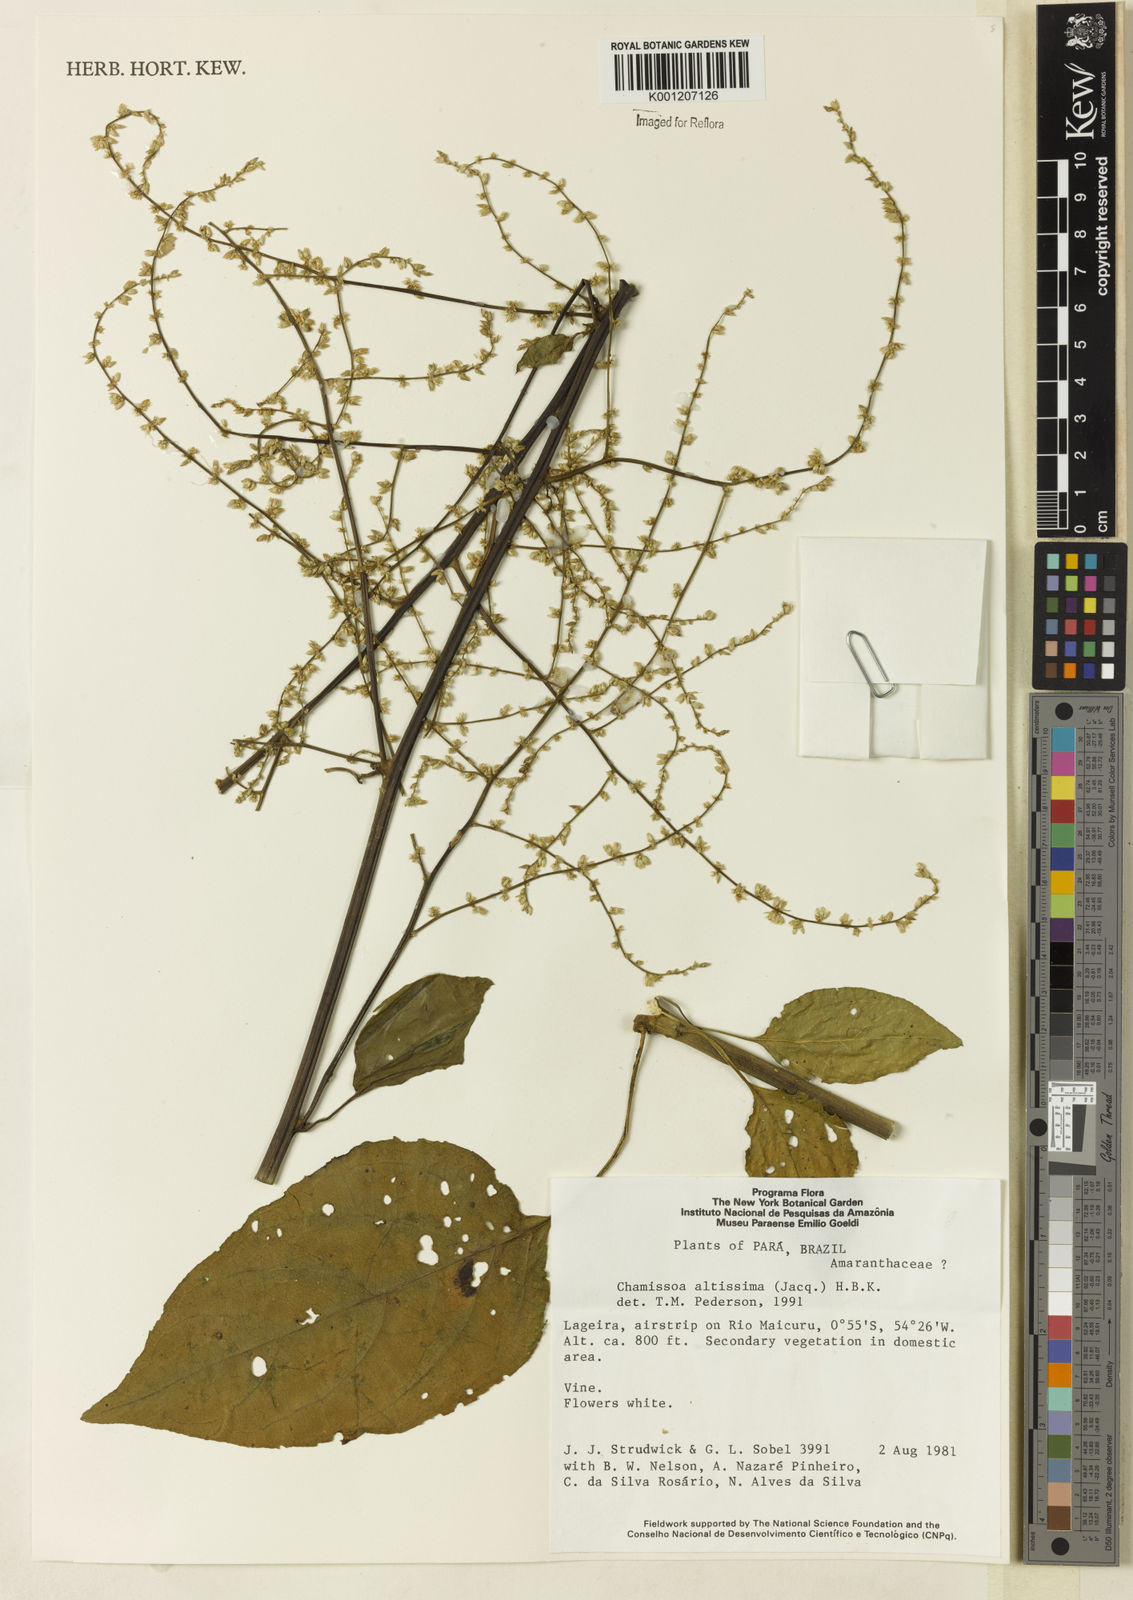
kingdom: Plantae
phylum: Tracheophyta
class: Magnoliopsida
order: Caryophyllales
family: Amaranthaceae
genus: Chamissoa
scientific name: Chamissoa altissima
